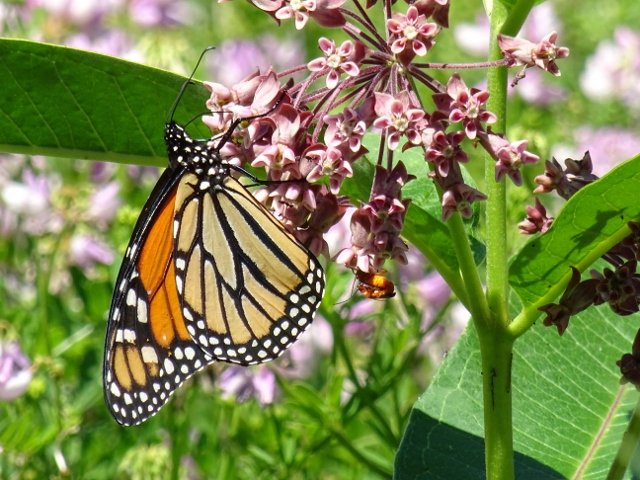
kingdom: Animalia
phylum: Arthropoda
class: Insecta
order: Lepidoptera
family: Nymphalidae
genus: Danaus
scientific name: Danaus plexippus
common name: Monarch
